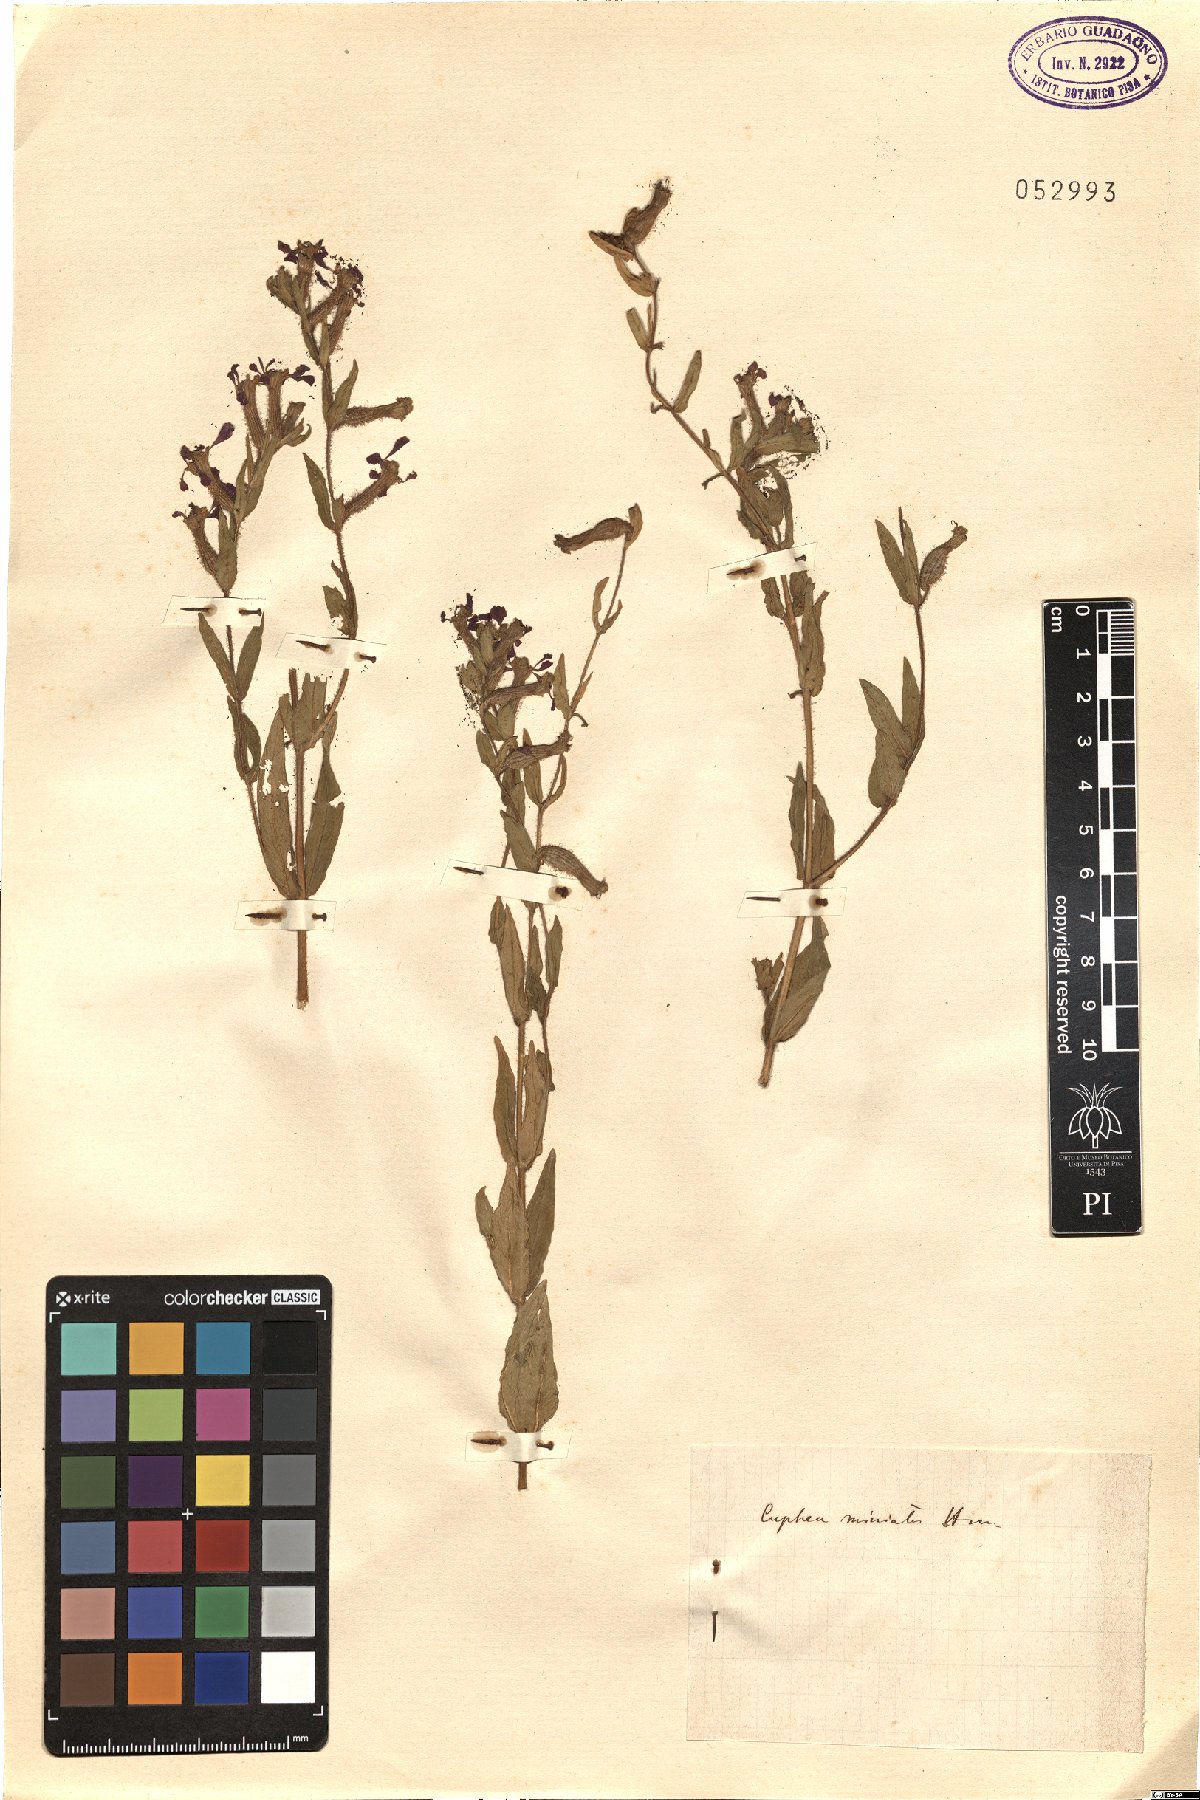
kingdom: Plantae
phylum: Tracheophyta
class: Magnoliopsida
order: Myrtales
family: Lythraceae
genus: Cuphea
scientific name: Cuphea llavea
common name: Tiny-mice
